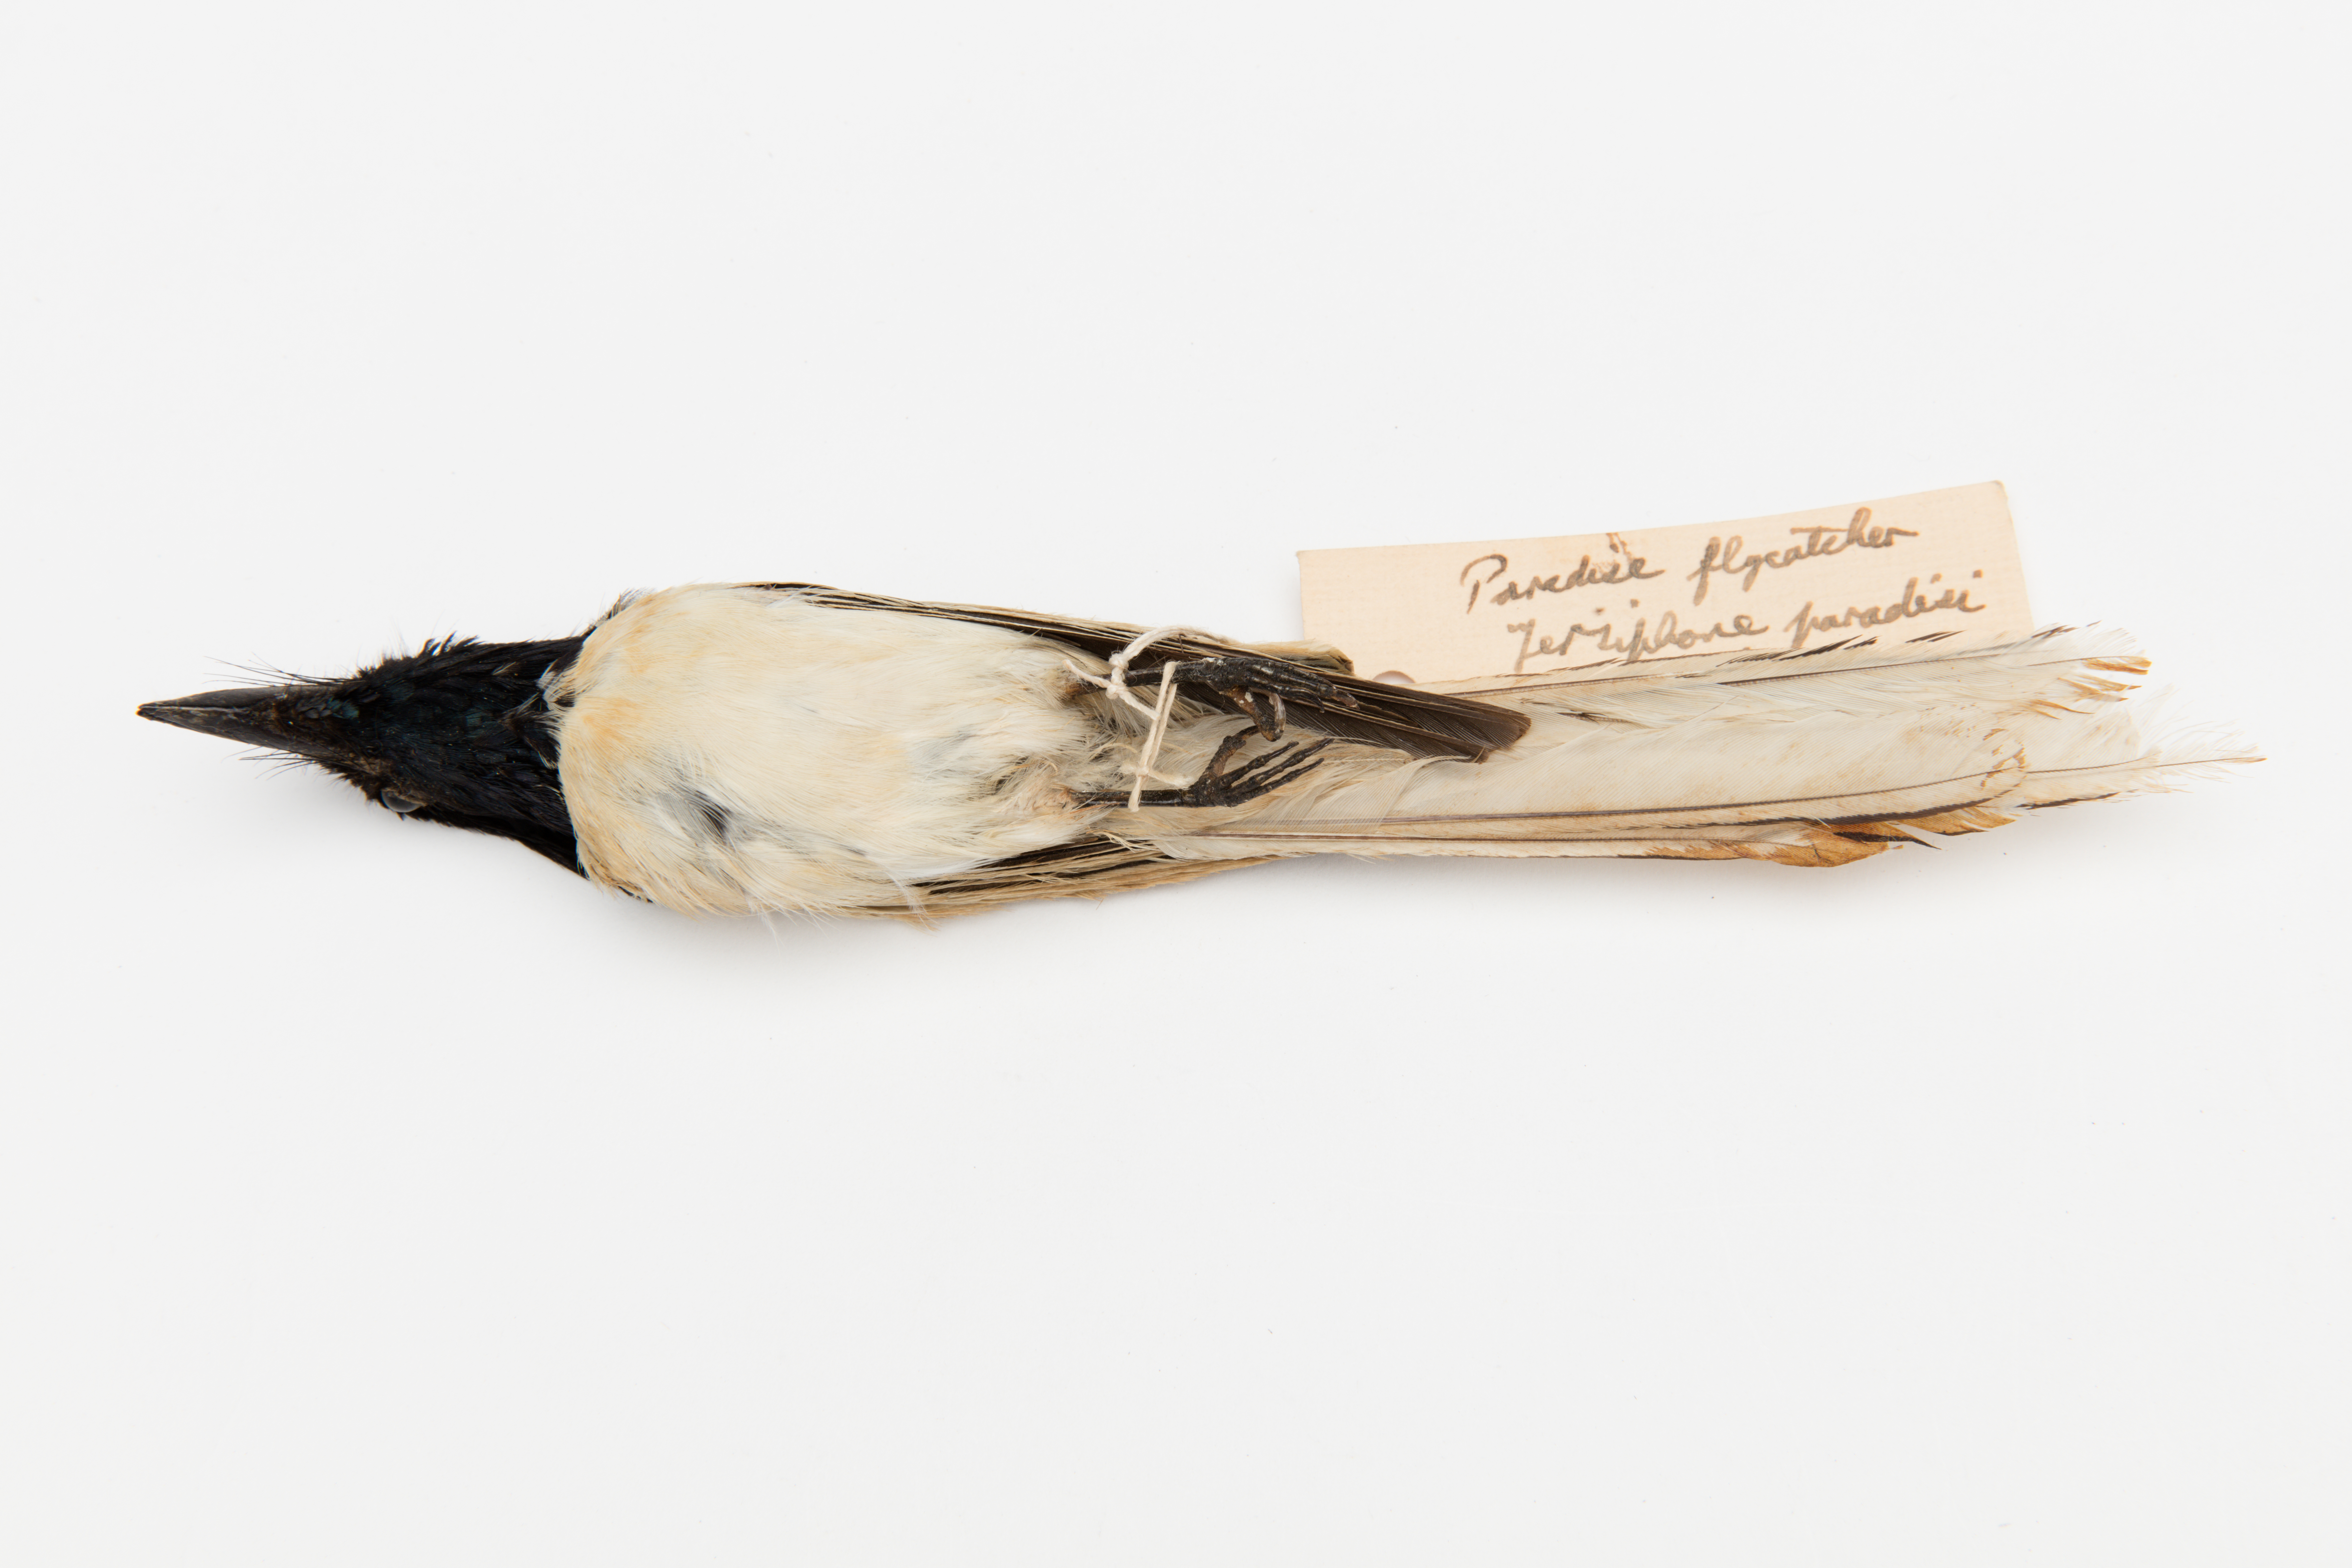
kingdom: Animalia
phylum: Chordata
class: Aves
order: Passeriformes
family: Monarchidae
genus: Terpsiphone
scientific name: Terpsiphone paradisi
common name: Indian paradise flycatcher
